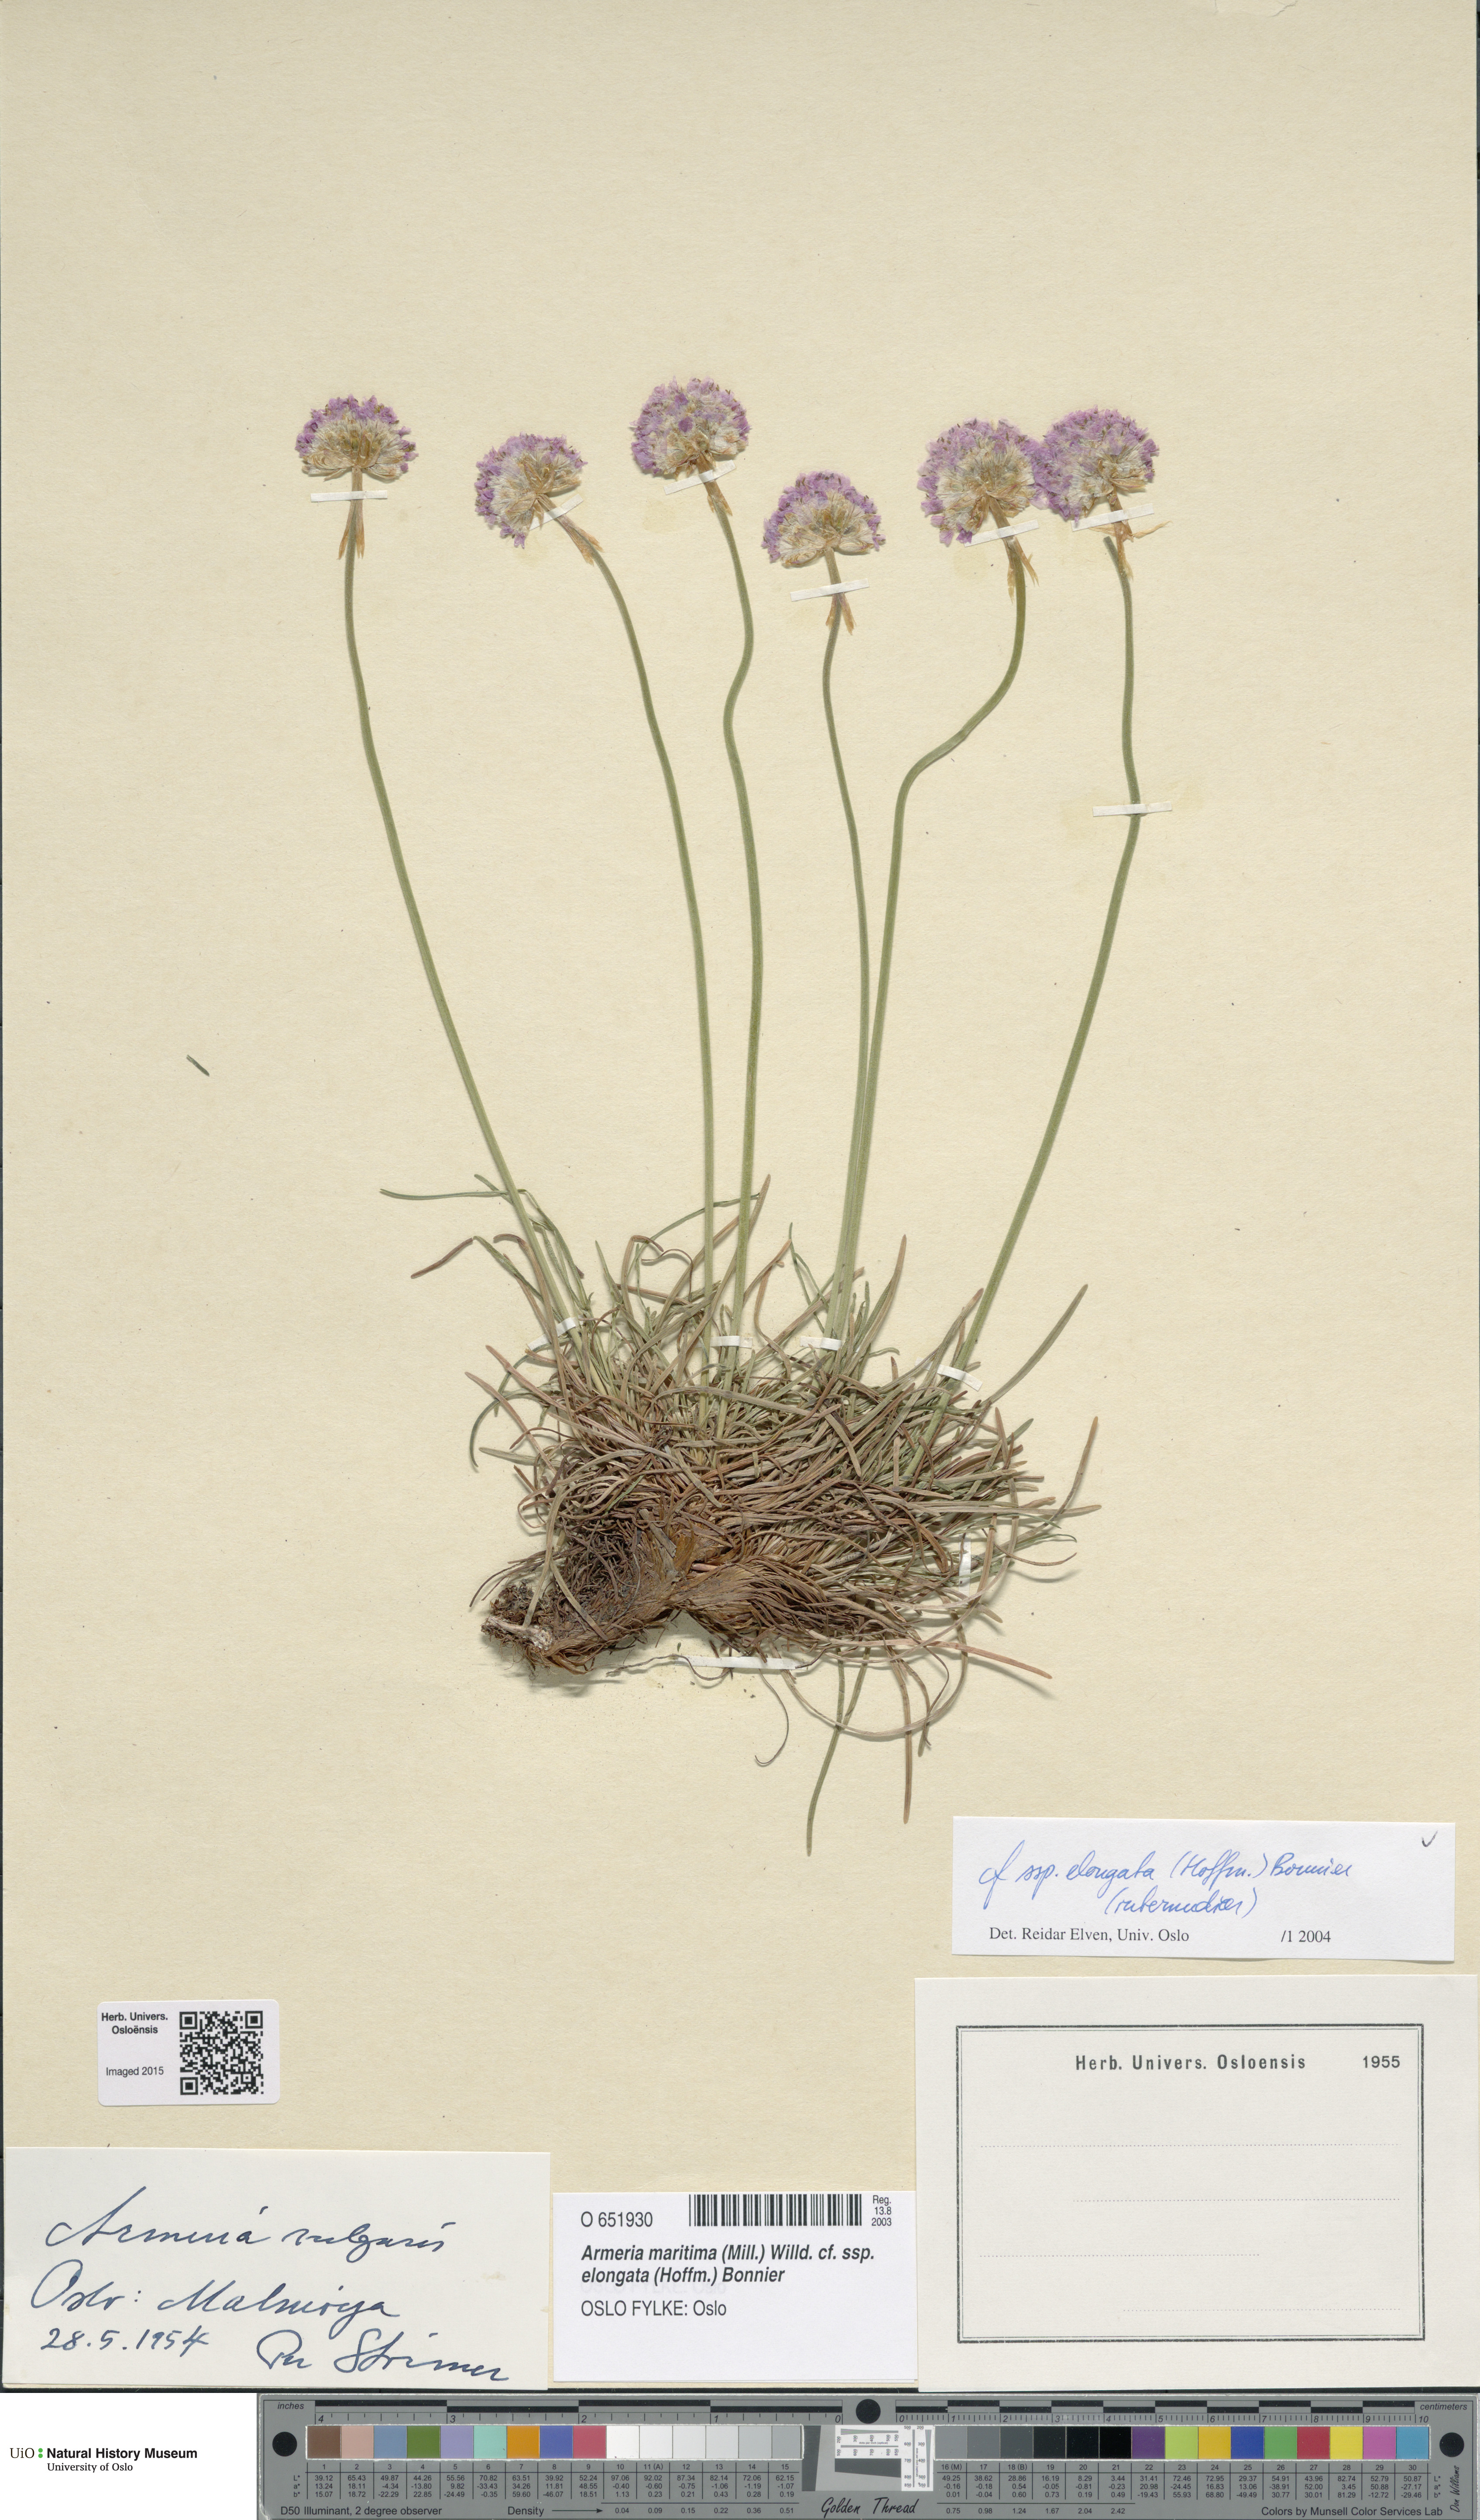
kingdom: Plantae
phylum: Tracheophyta
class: Magnoliopsida
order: Caryophyllales
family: Plumbaginaceae
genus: Armeria
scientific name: Armeria maritima
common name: Thrift
